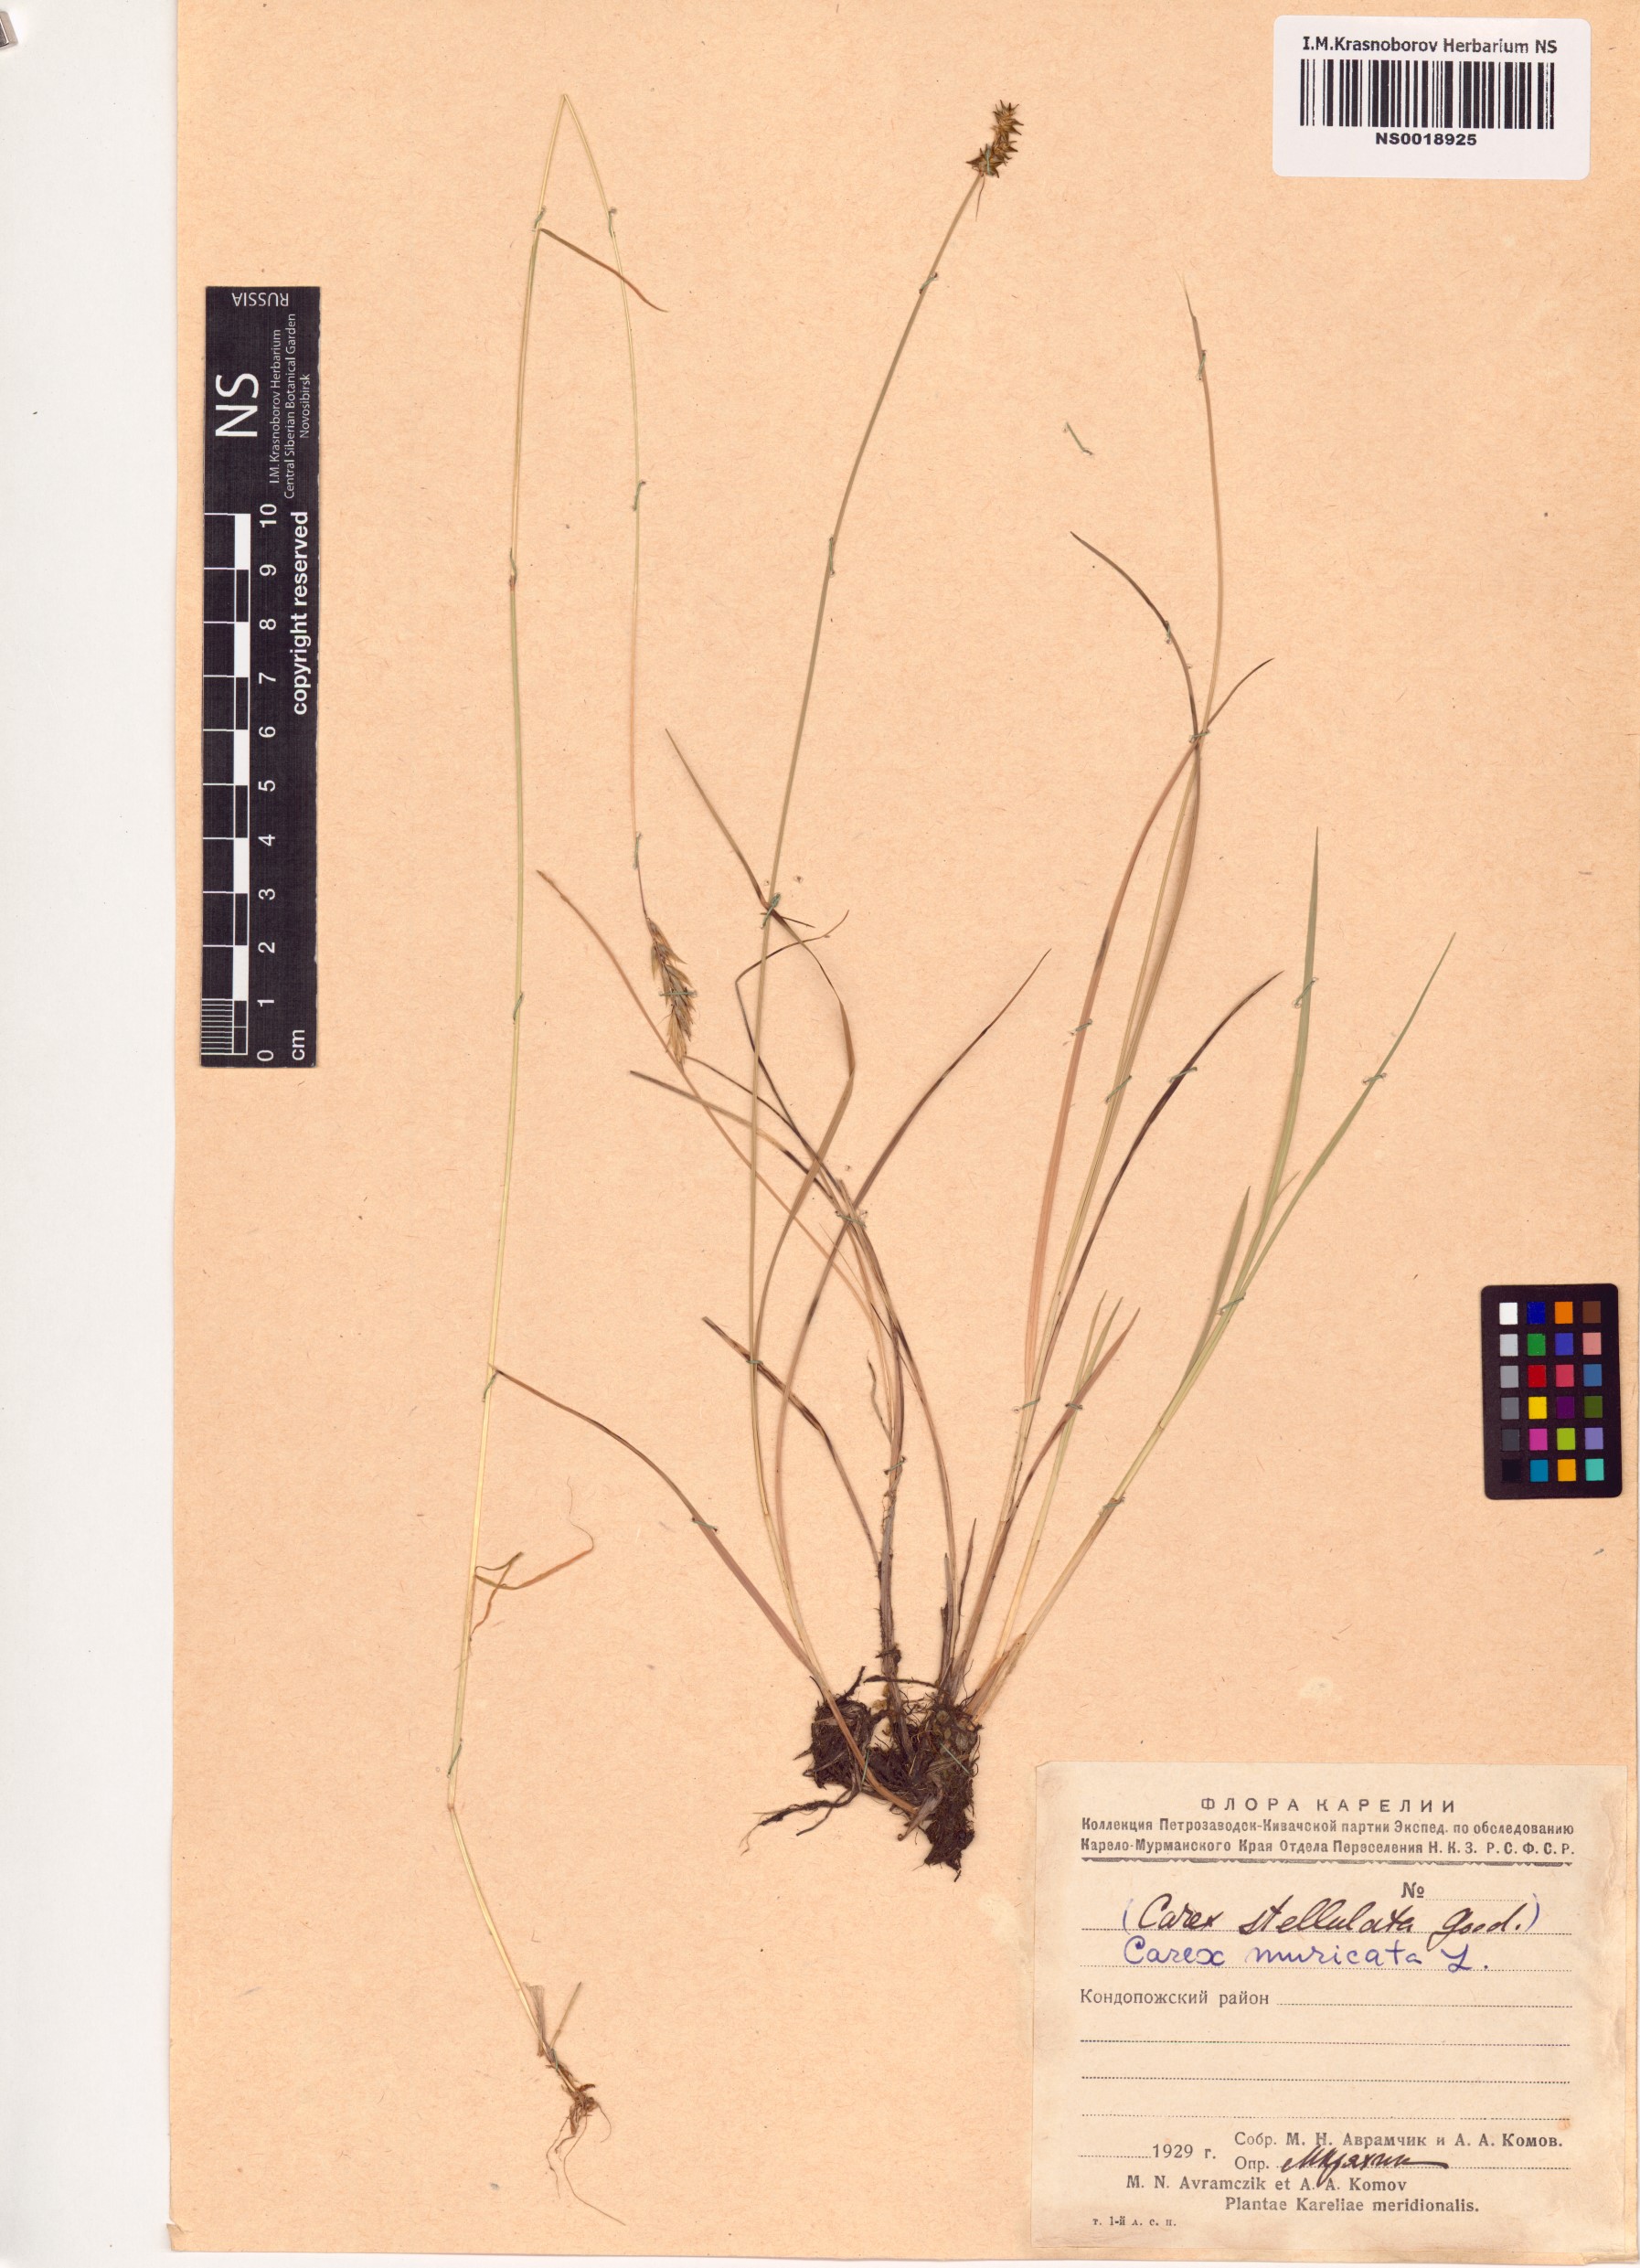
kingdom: Plantae
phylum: Tracheophyta
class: Liliopsida
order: Poales
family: Cyperaceae
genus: Carex
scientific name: Carex muricata
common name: Rough sedge
